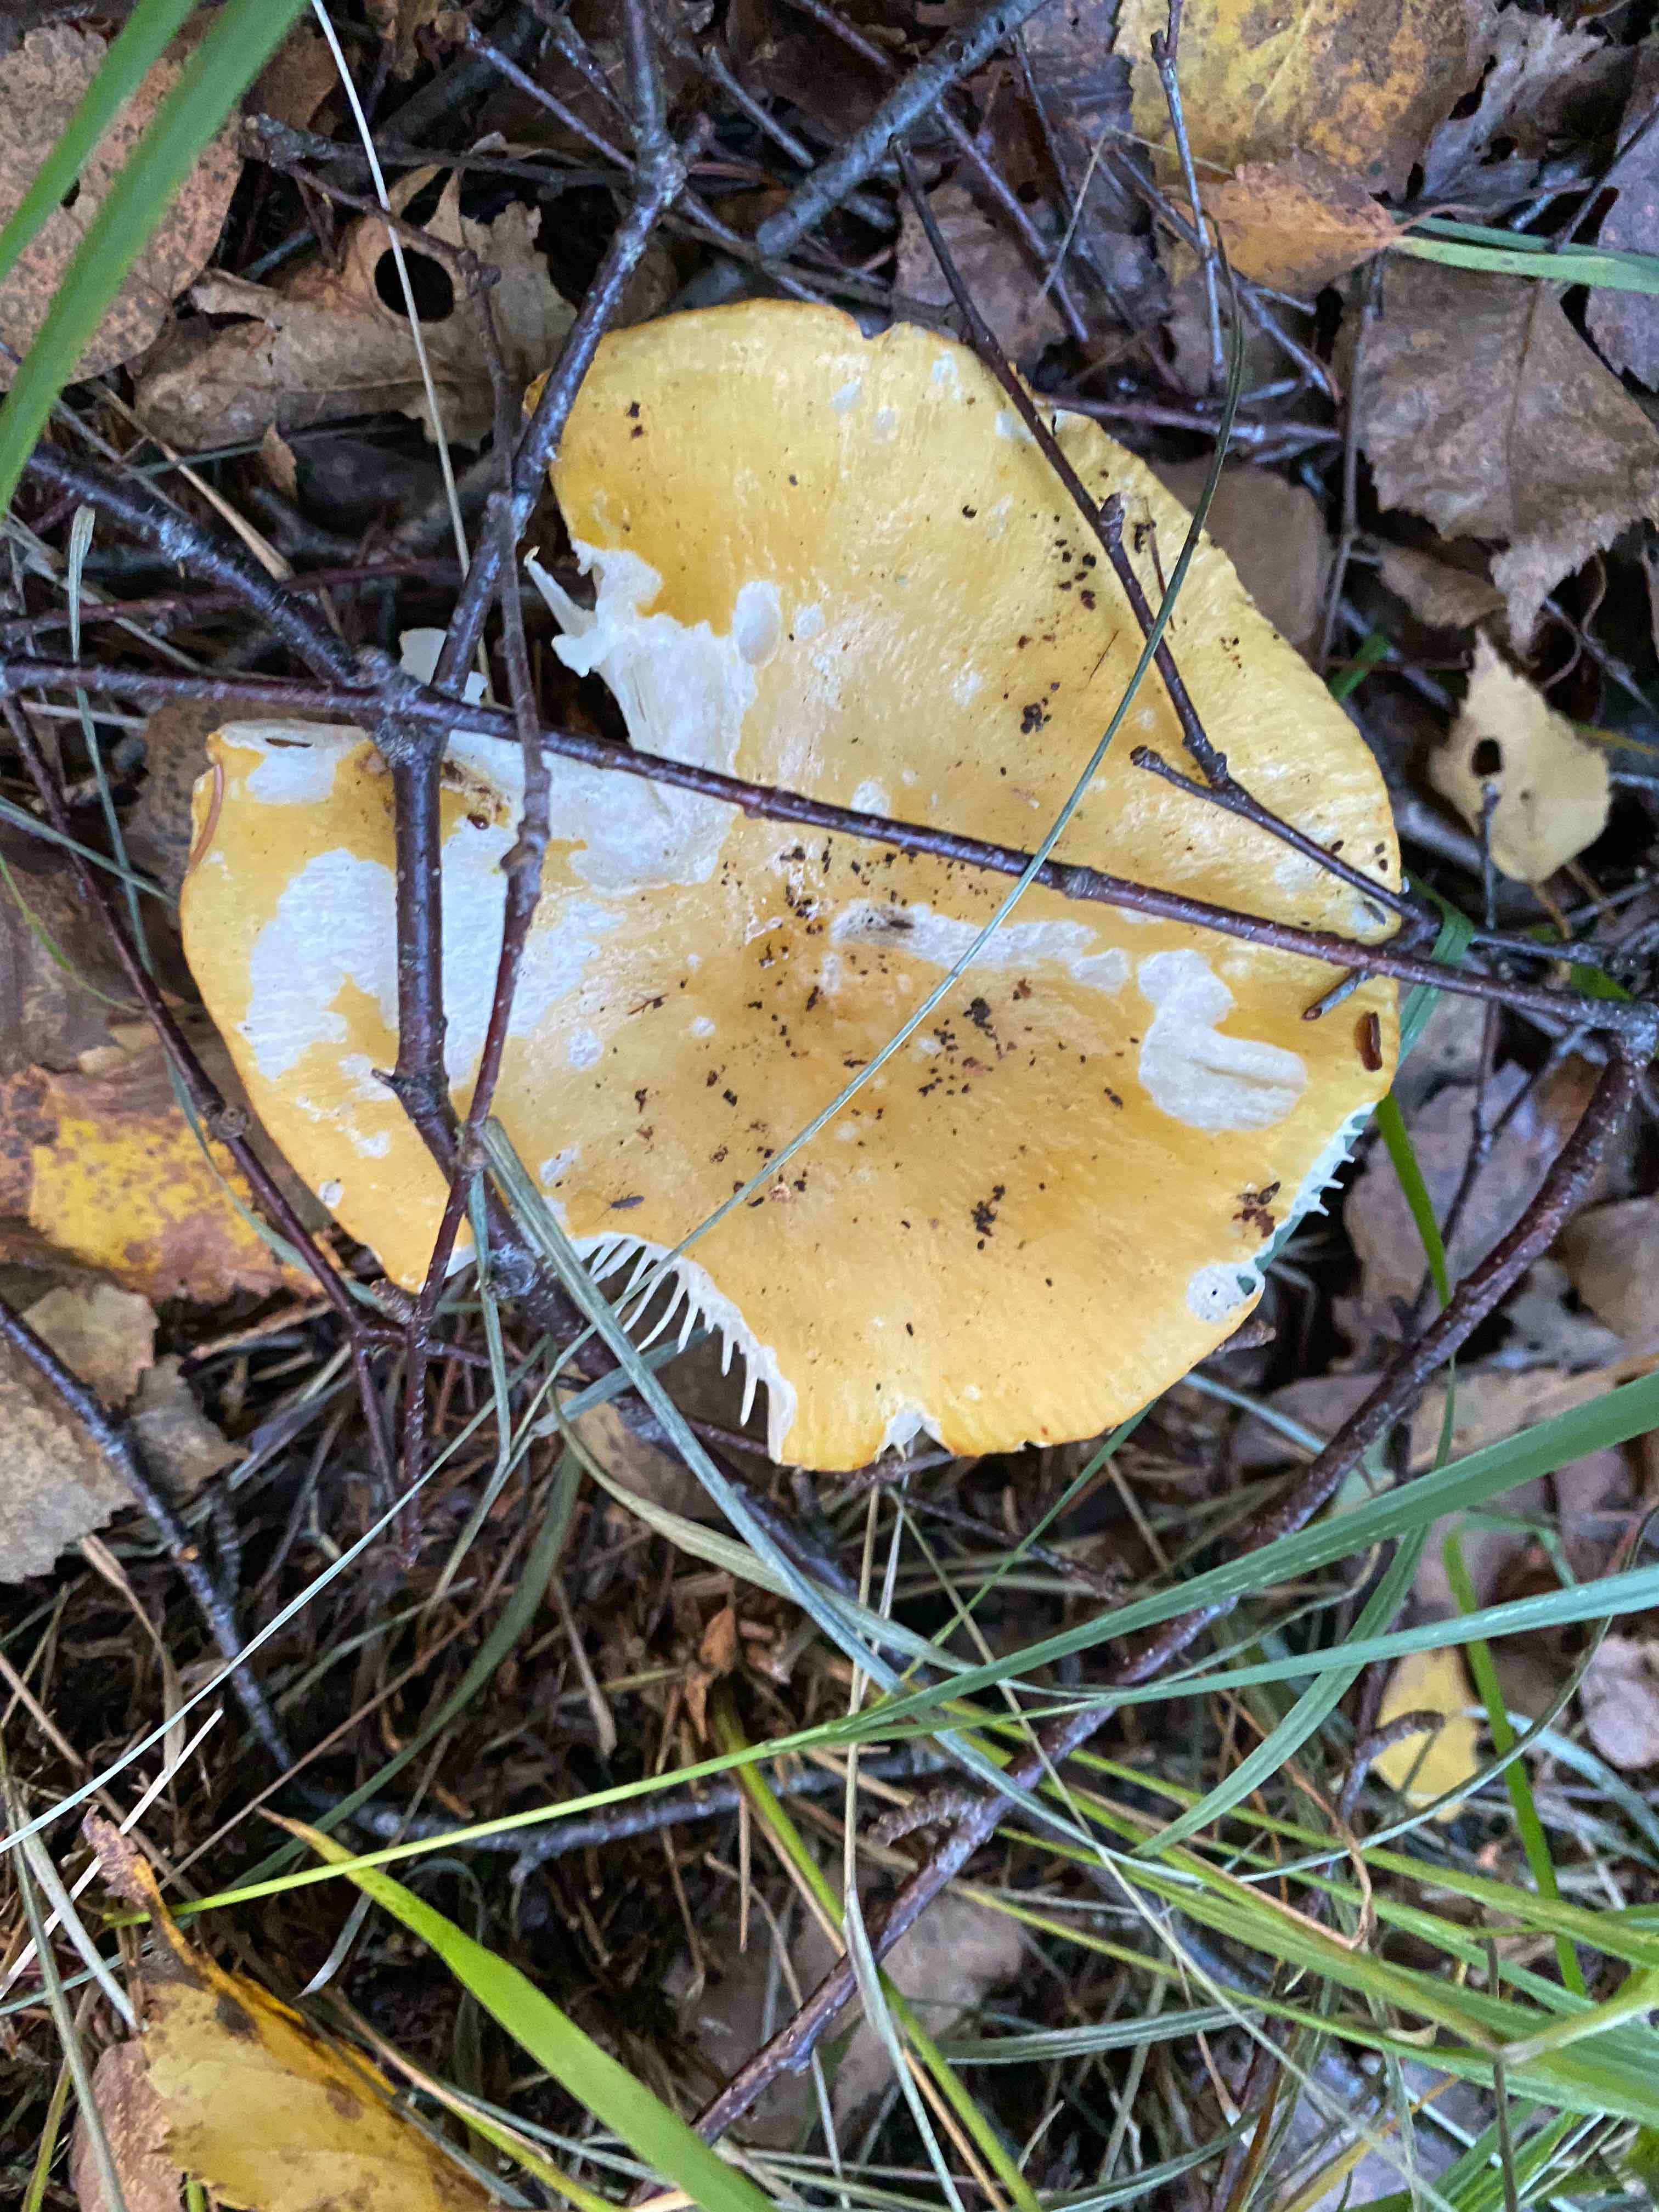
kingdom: Fungi
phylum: Basidiomycota
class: Agaricomycetes
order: Russulales
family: Russulaceae
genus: Russula
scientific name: Russula ochroleuca
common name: okkergul skørhat
